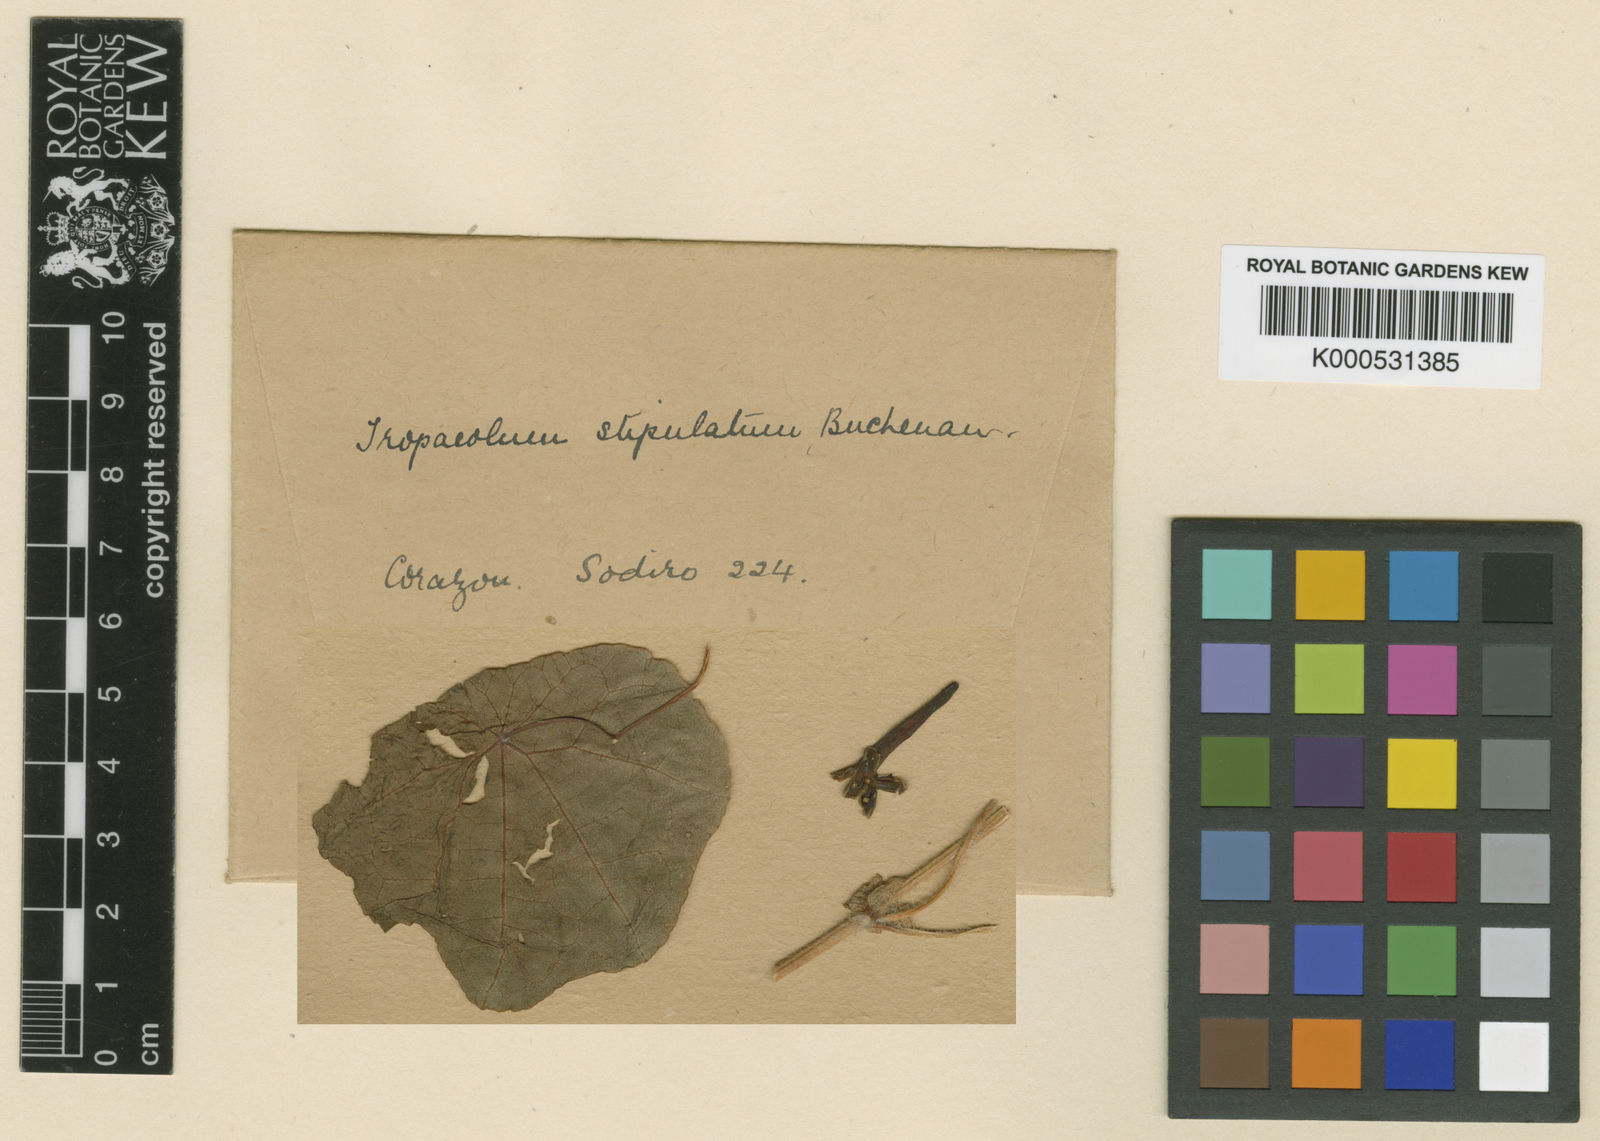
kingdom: Plantae
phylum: Tracheophyta
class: Magnoliopsida
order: Brassicales
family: Tropaeolaceae
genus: Tropaeolum
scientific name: Tropaeolum stipulatum
